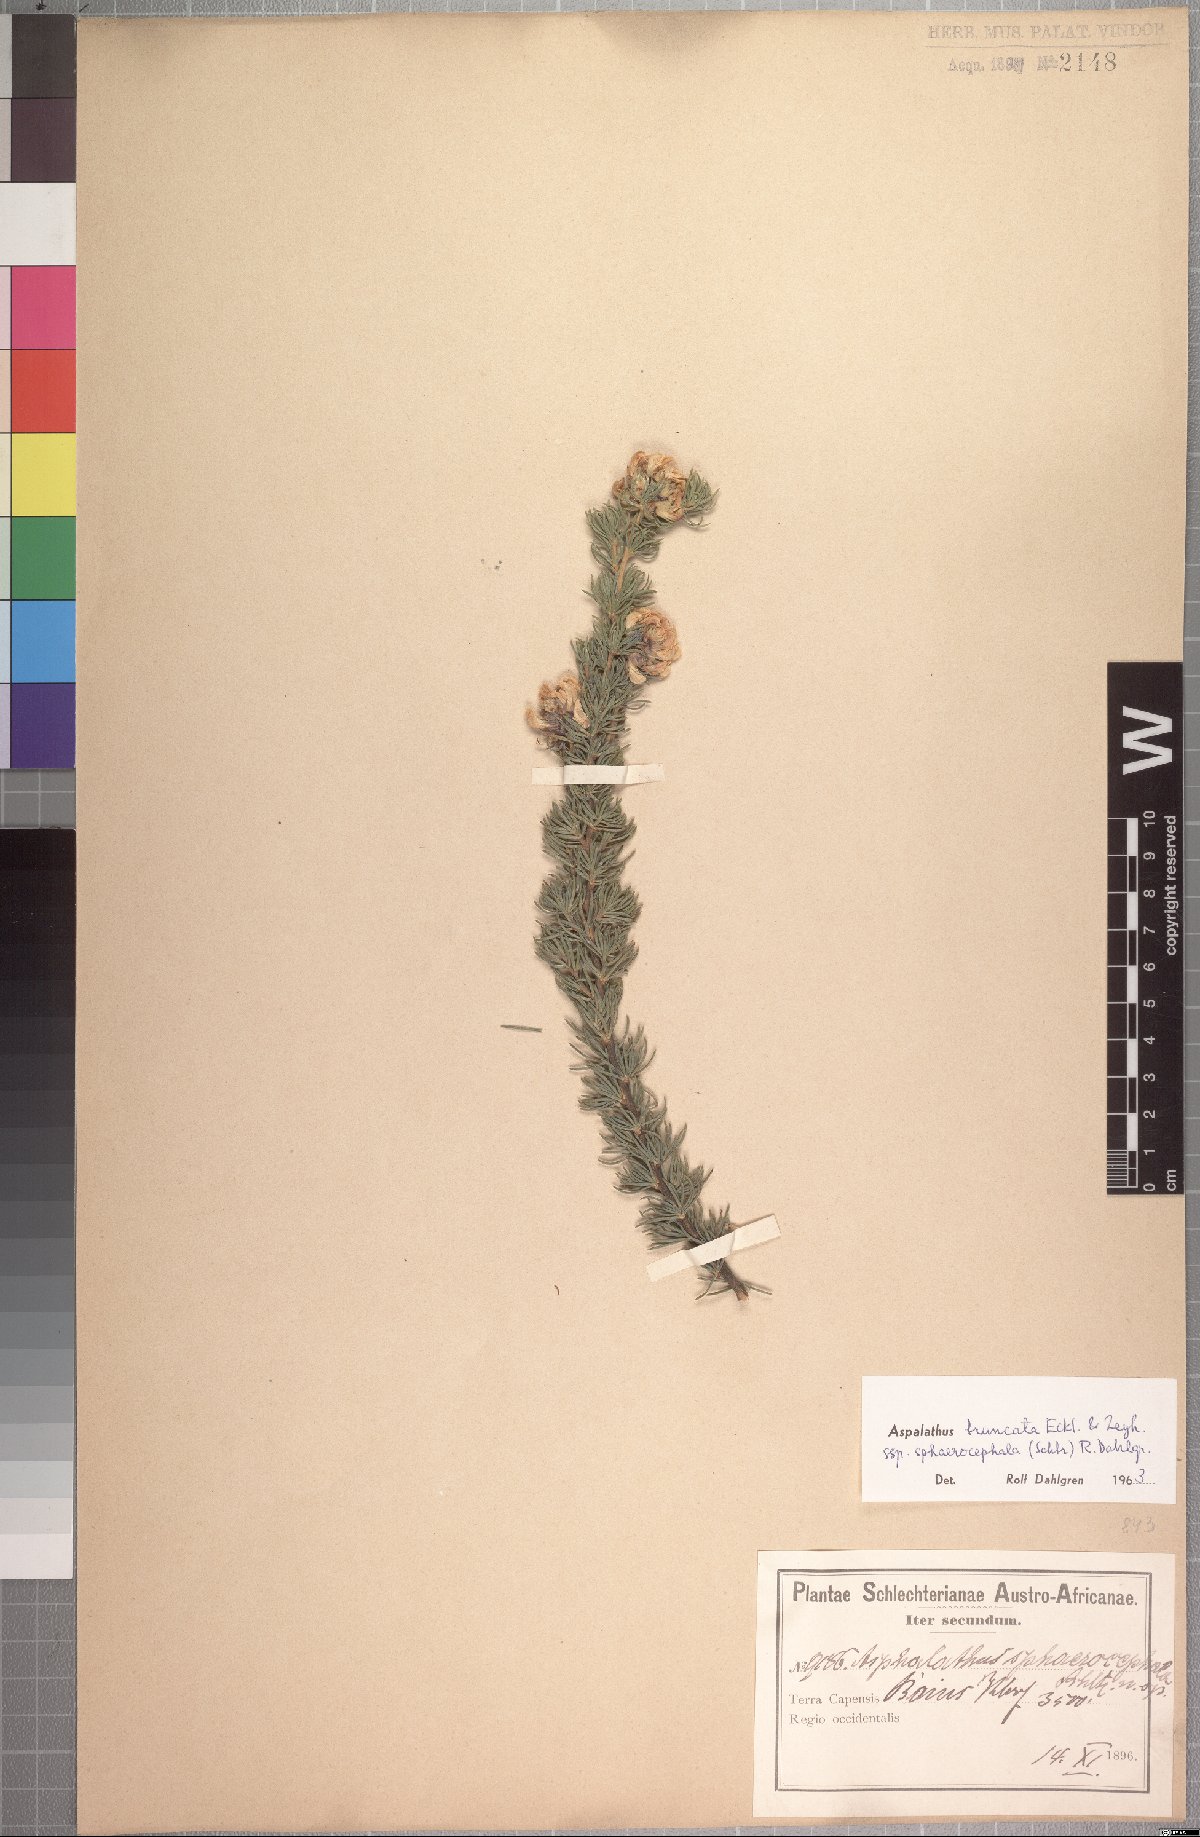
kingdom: Plantae
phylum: Tracheophyta
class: Magnoliopsida
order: Fabales
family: Fabaceae
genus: Aspalathus
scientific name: Aspalathus truncata
